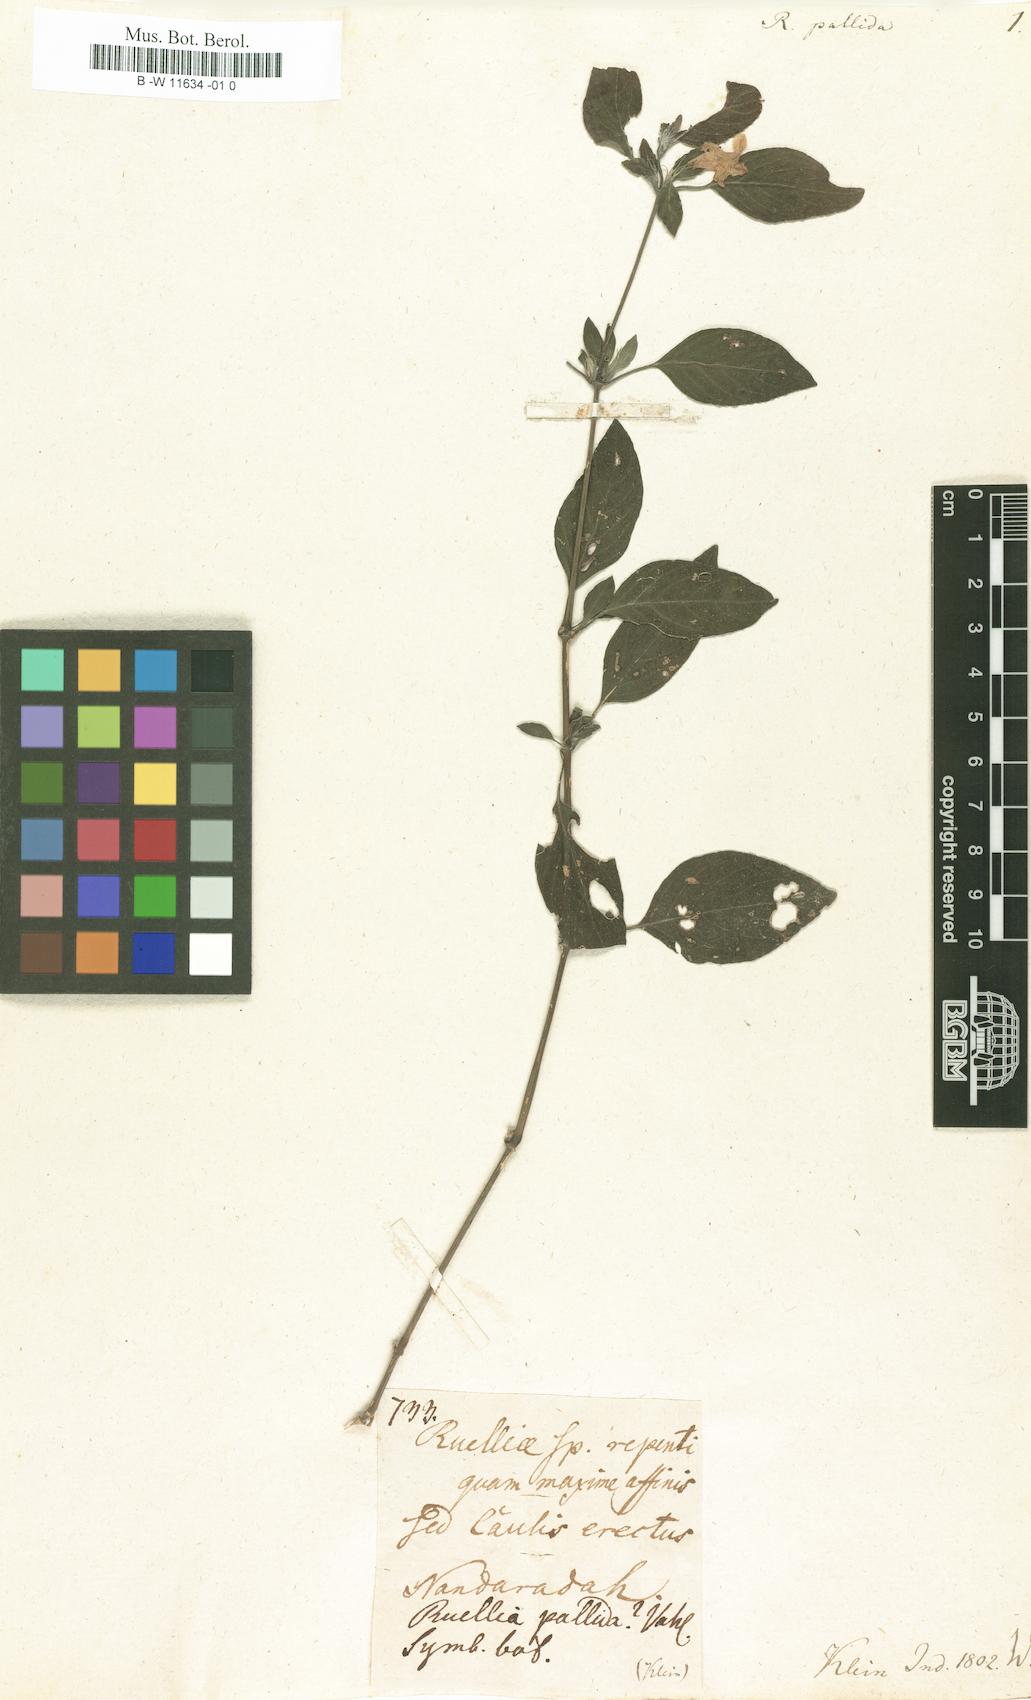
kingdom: Plantae
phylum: Tracheophyta
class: Magnoliopsida
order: Lamiales
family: Acanthaceae
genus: Ruellia
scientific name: Ruellia patula
